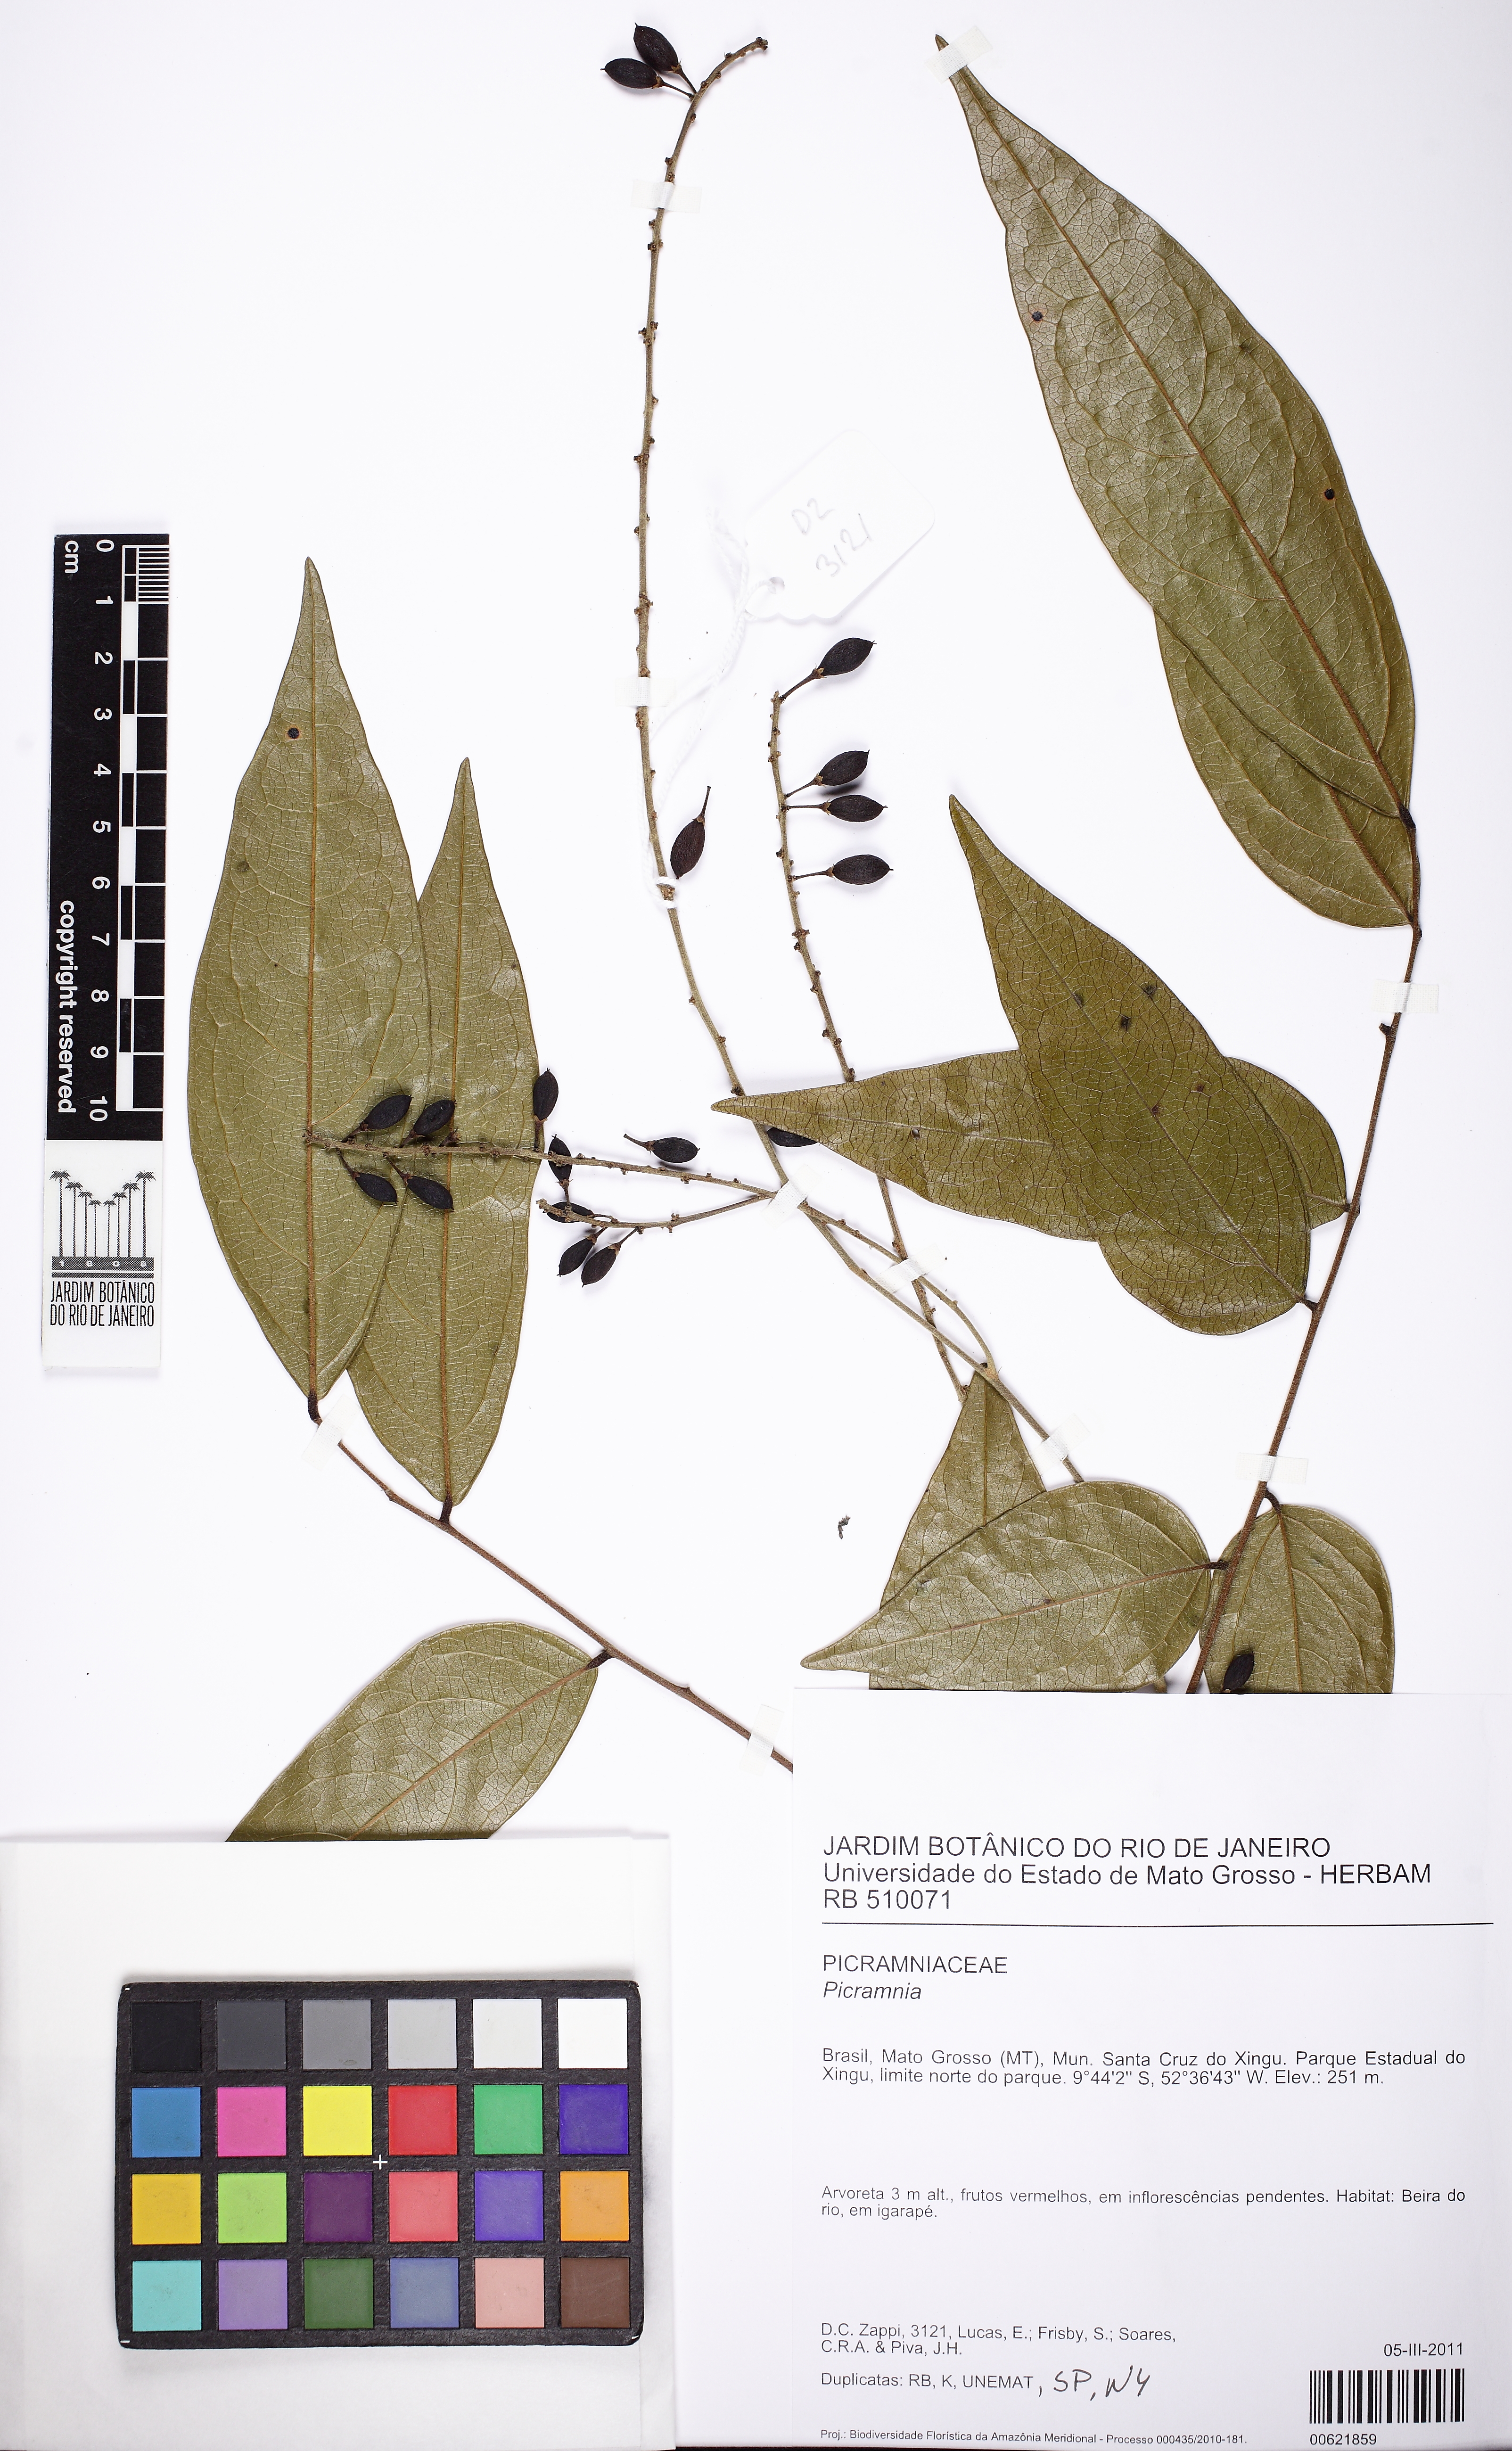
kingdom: Plantae
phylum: Tracheophyta
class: Magnoliopsida
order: Picramniales
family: Picramniaceae
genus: Picramnia
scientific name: Picramnia sellowii
